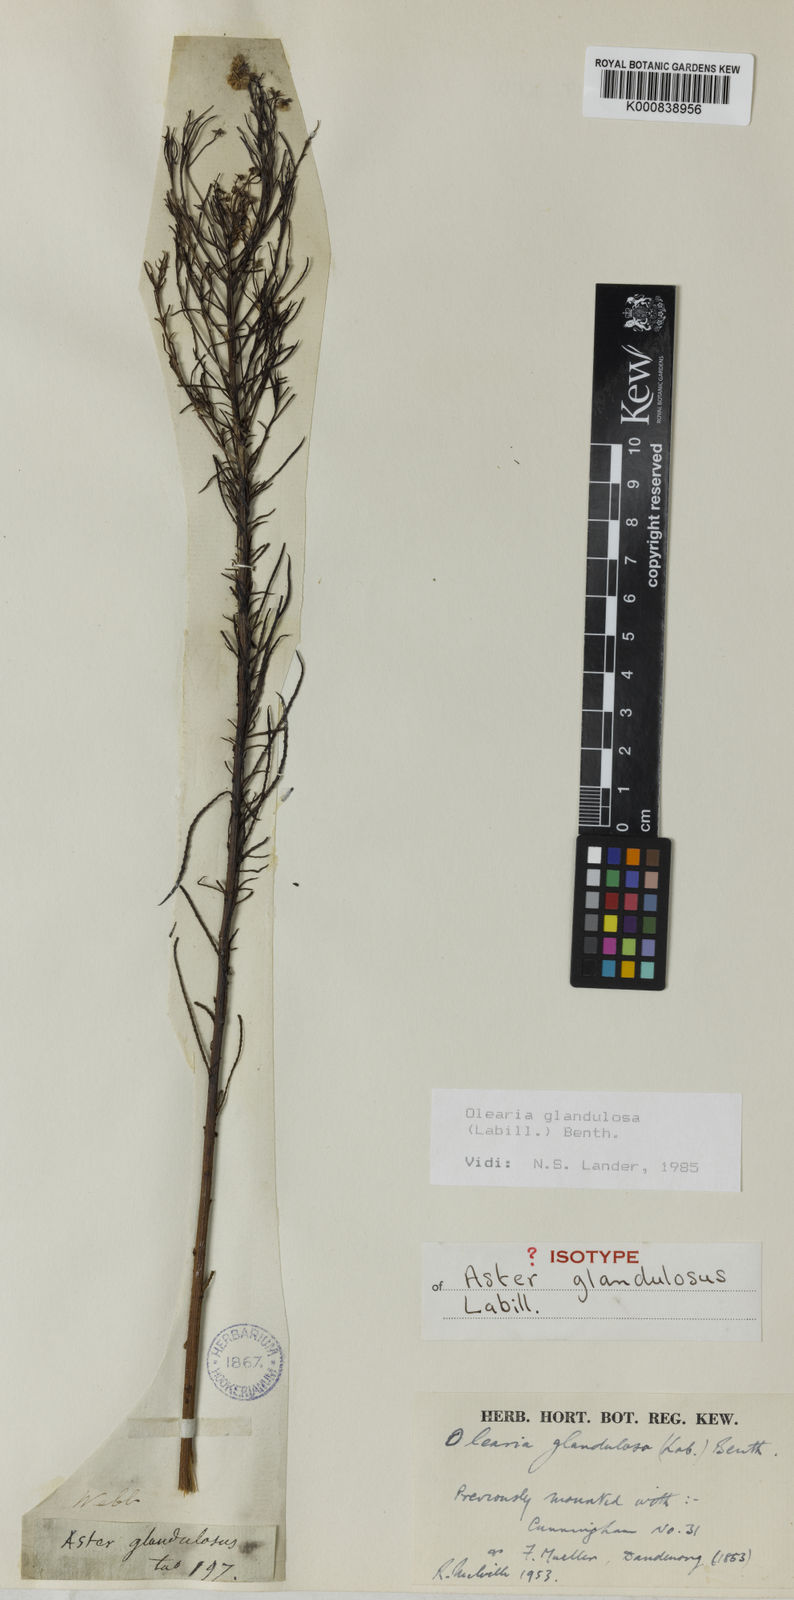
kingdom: Plantae
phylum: Tracheophyta
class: Magnoliopsida
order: Asterales
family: Asteraceae
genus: Spongotrichum
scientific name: Spongotrichum glandulosum
